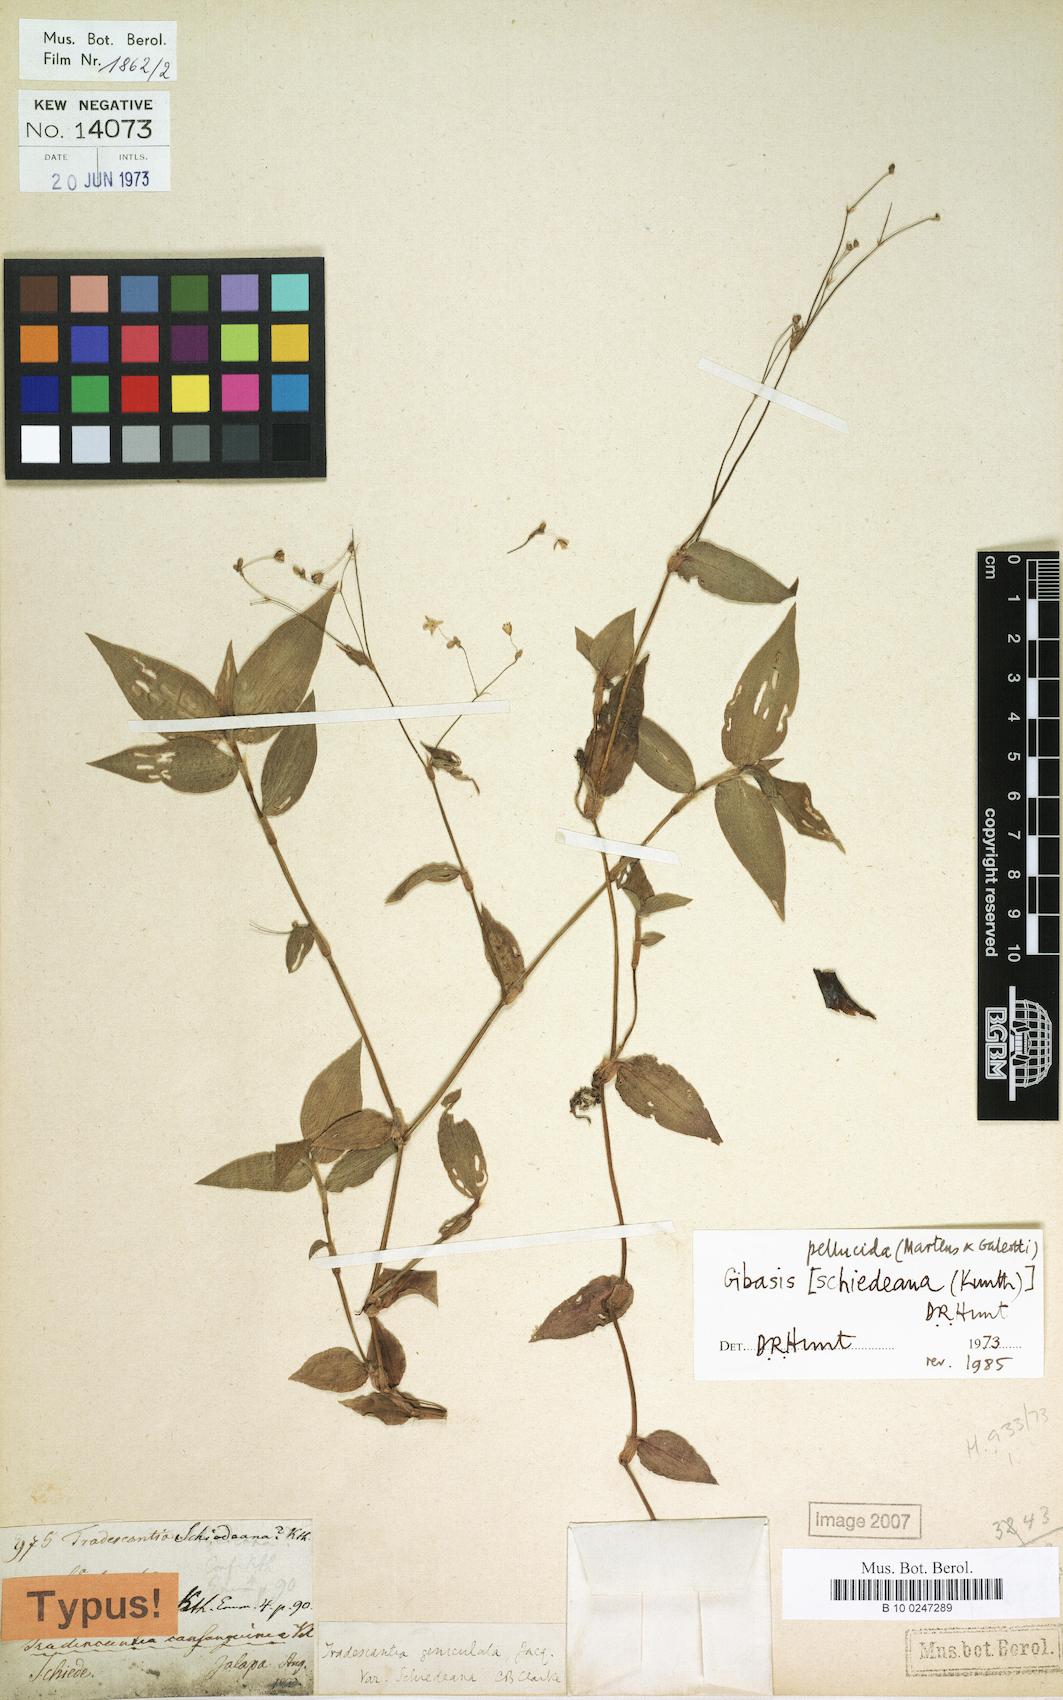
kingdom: Plantae
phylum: Tracheophyta
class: Liliopsida
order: Commelinales
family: Commelinaceae
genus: Gibasis
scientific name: Gibasis pellucida
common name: Dotted bridalveil
